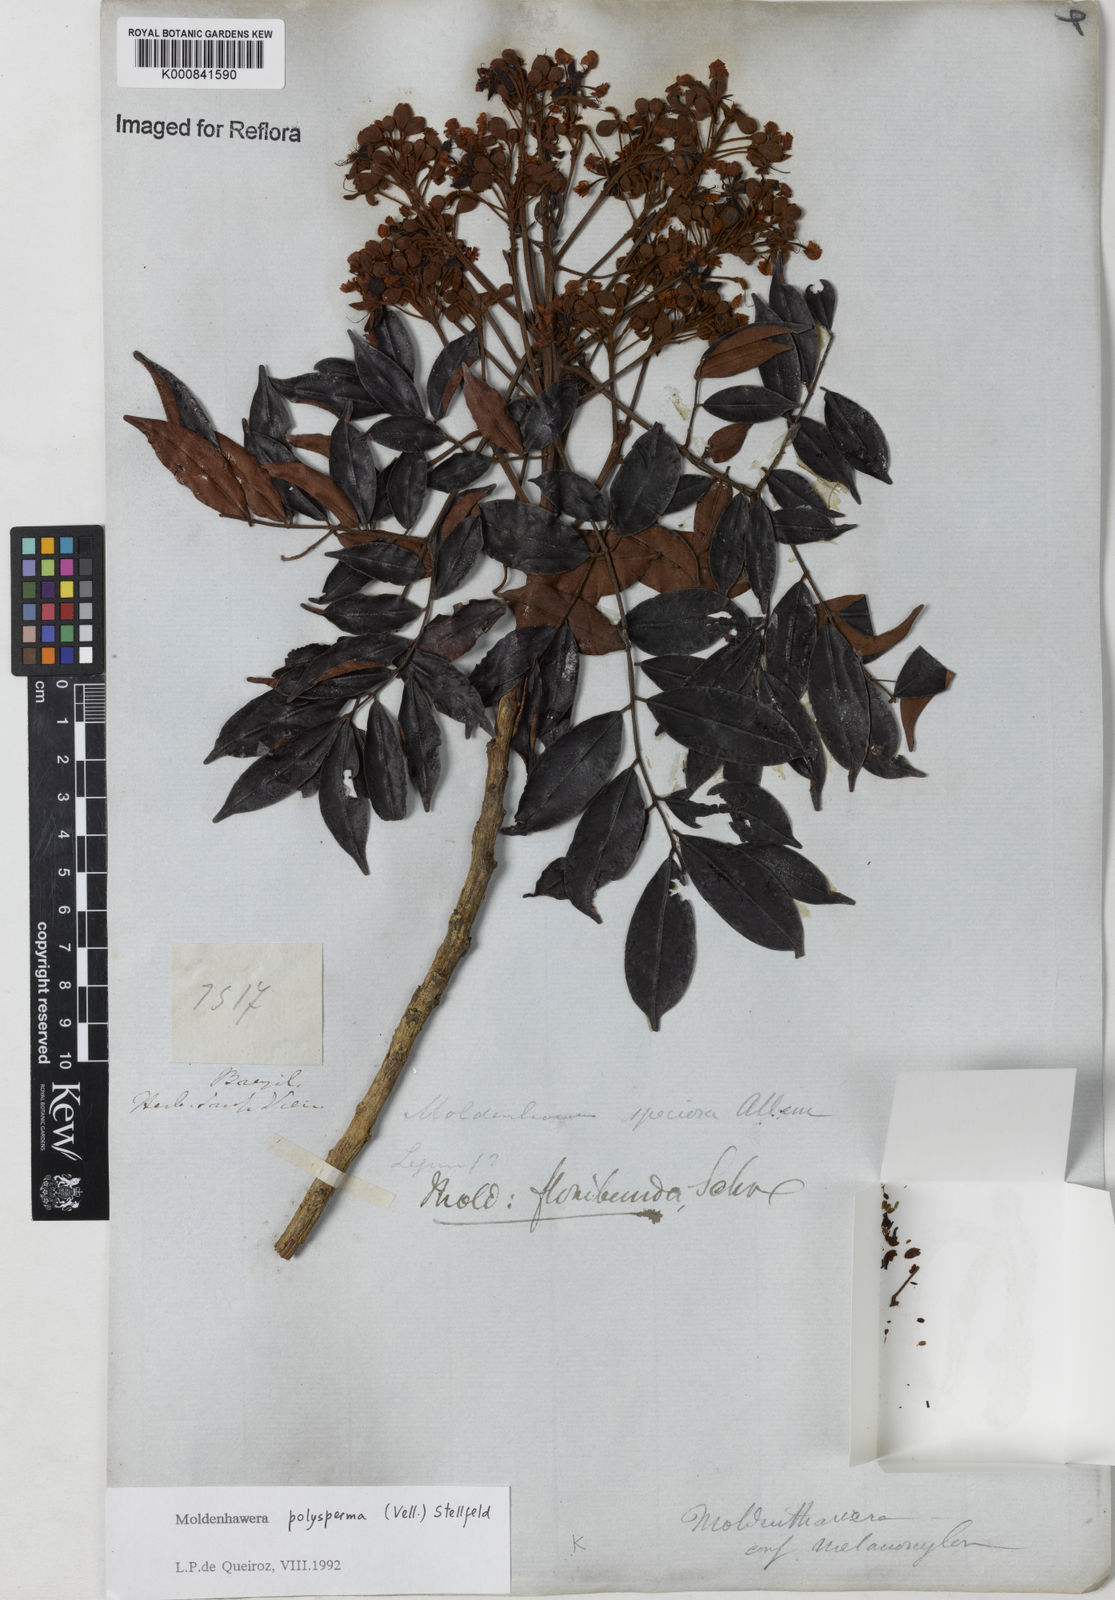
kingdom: Plantae
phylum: Tracheophyta
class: Magnoliopsida
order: Fabales
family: Fabaceae
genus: Moldenhawera
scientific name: Moldenhawera polysperma
